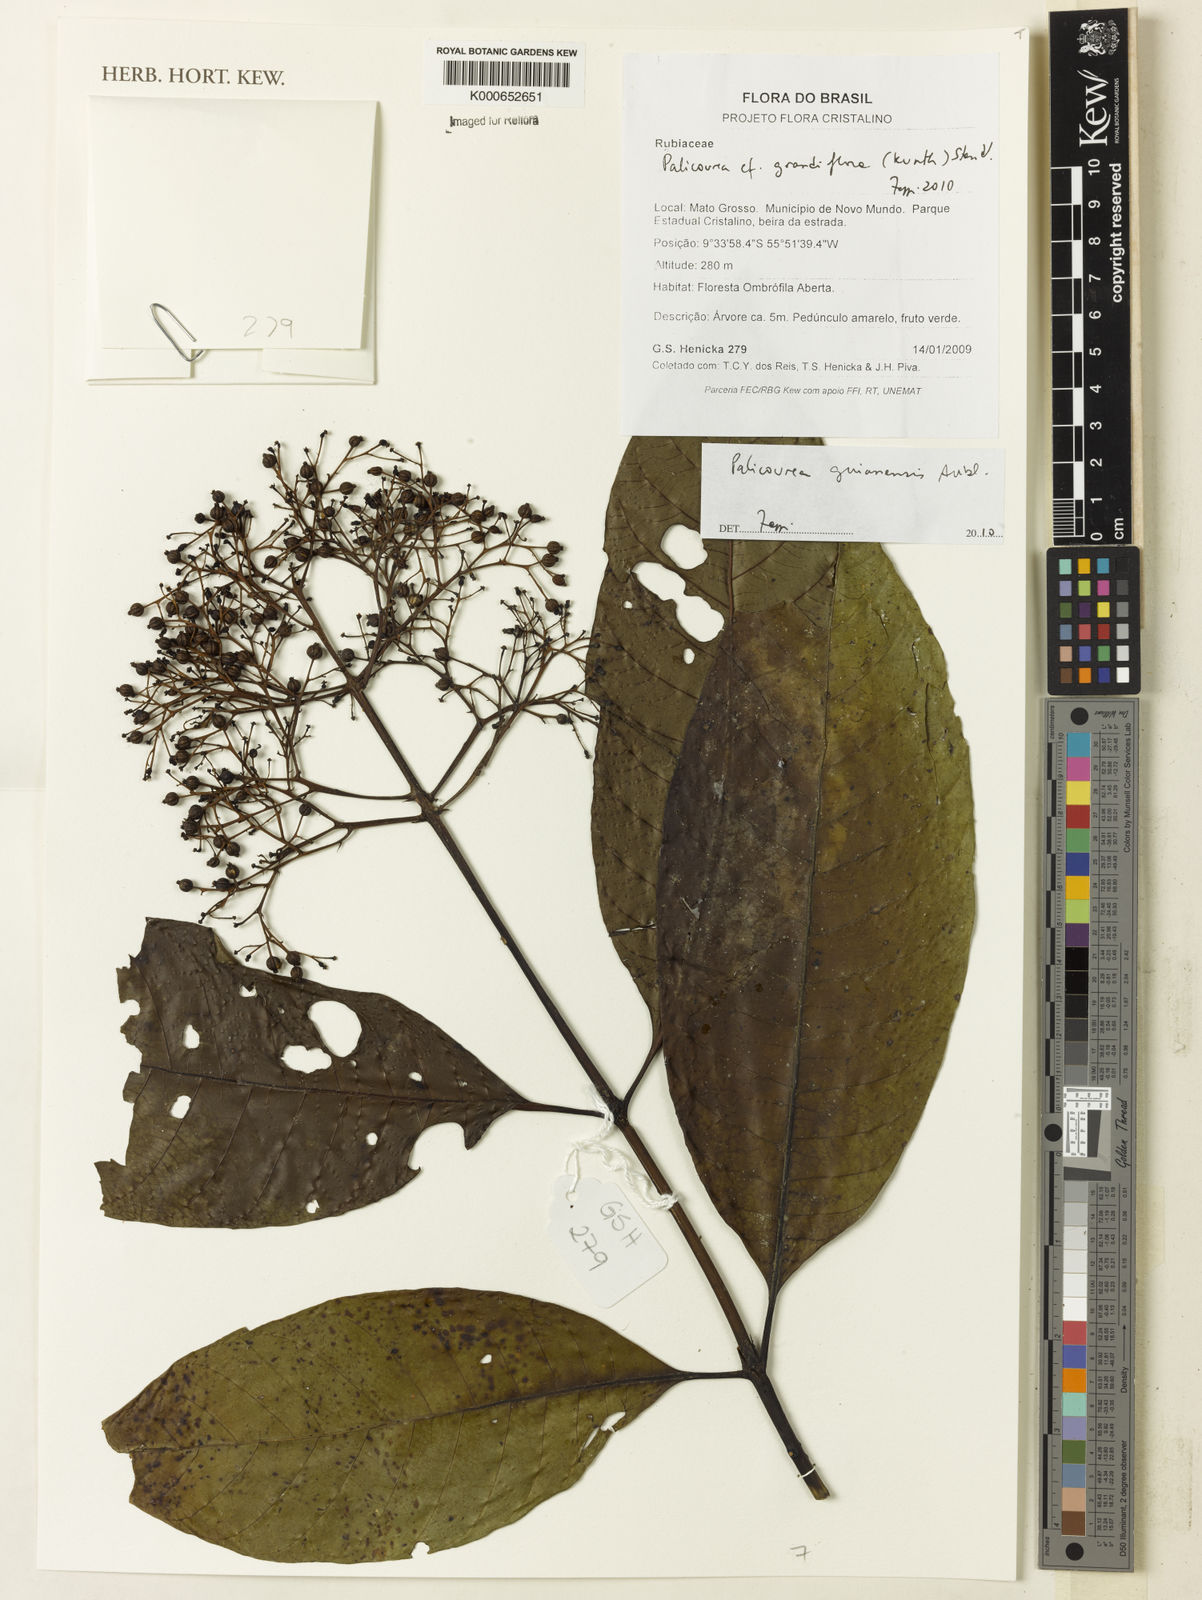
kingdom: Plantae
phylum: Tracheophyta
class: Magnoliopsida
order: Gentianales
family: Rubiaceae
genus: Palicourea
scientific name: Palicourea guianensis
